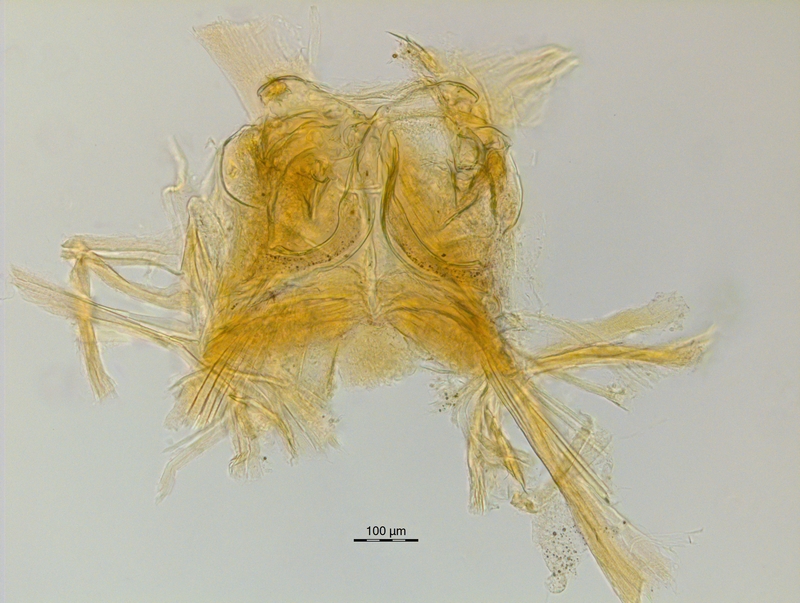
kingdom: Animalia
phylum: Arthropoda
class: Diplopoda
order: Chordeumatida
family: Craspedosomatidae
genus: Ochogona
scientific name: Ochogona caroli
